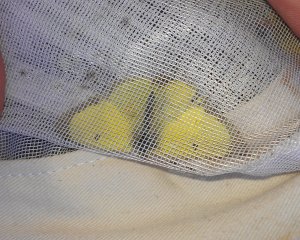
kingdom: Animalia
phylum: Arthropoda
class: Insecta
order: Lepidoptera
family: Pieridae
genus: Colias
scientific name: Colias philodice
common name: Clouded Sulphur
